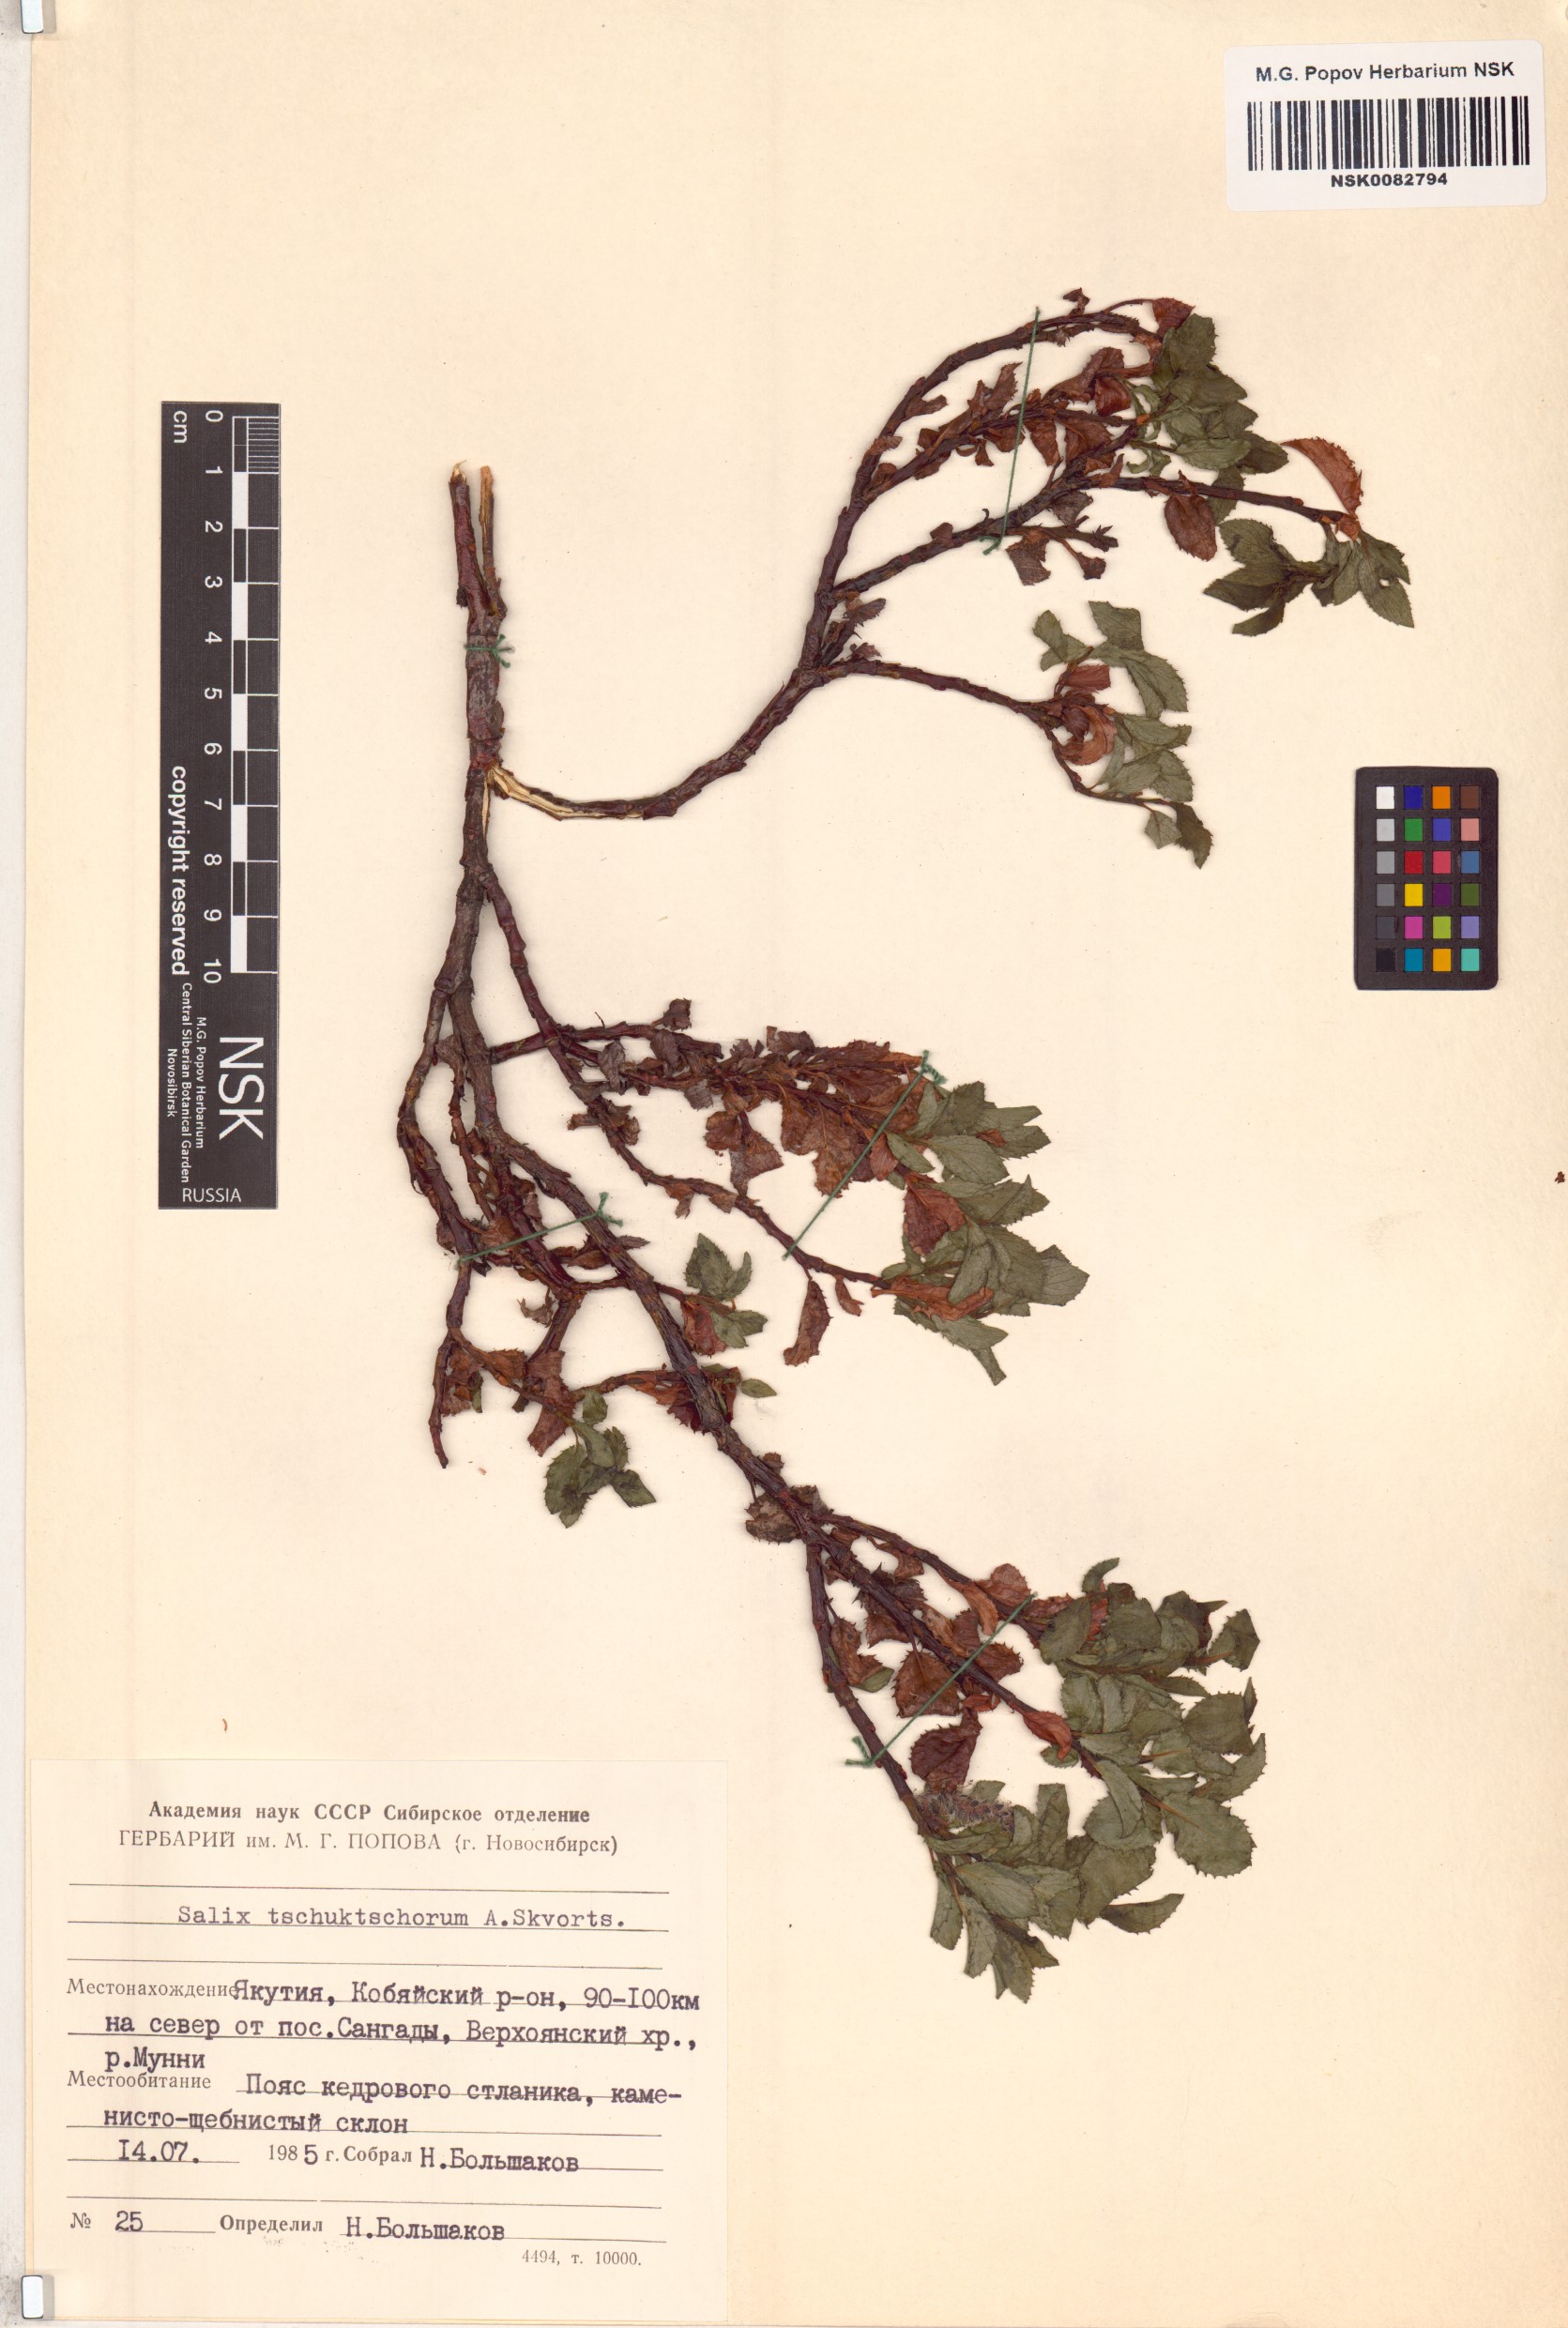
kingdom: Plantae
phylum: Tracheophyta
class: Magnoliopsida
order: Malpighiales
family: Salicaceae
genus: Salix
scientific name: Salix tschuktschorum
